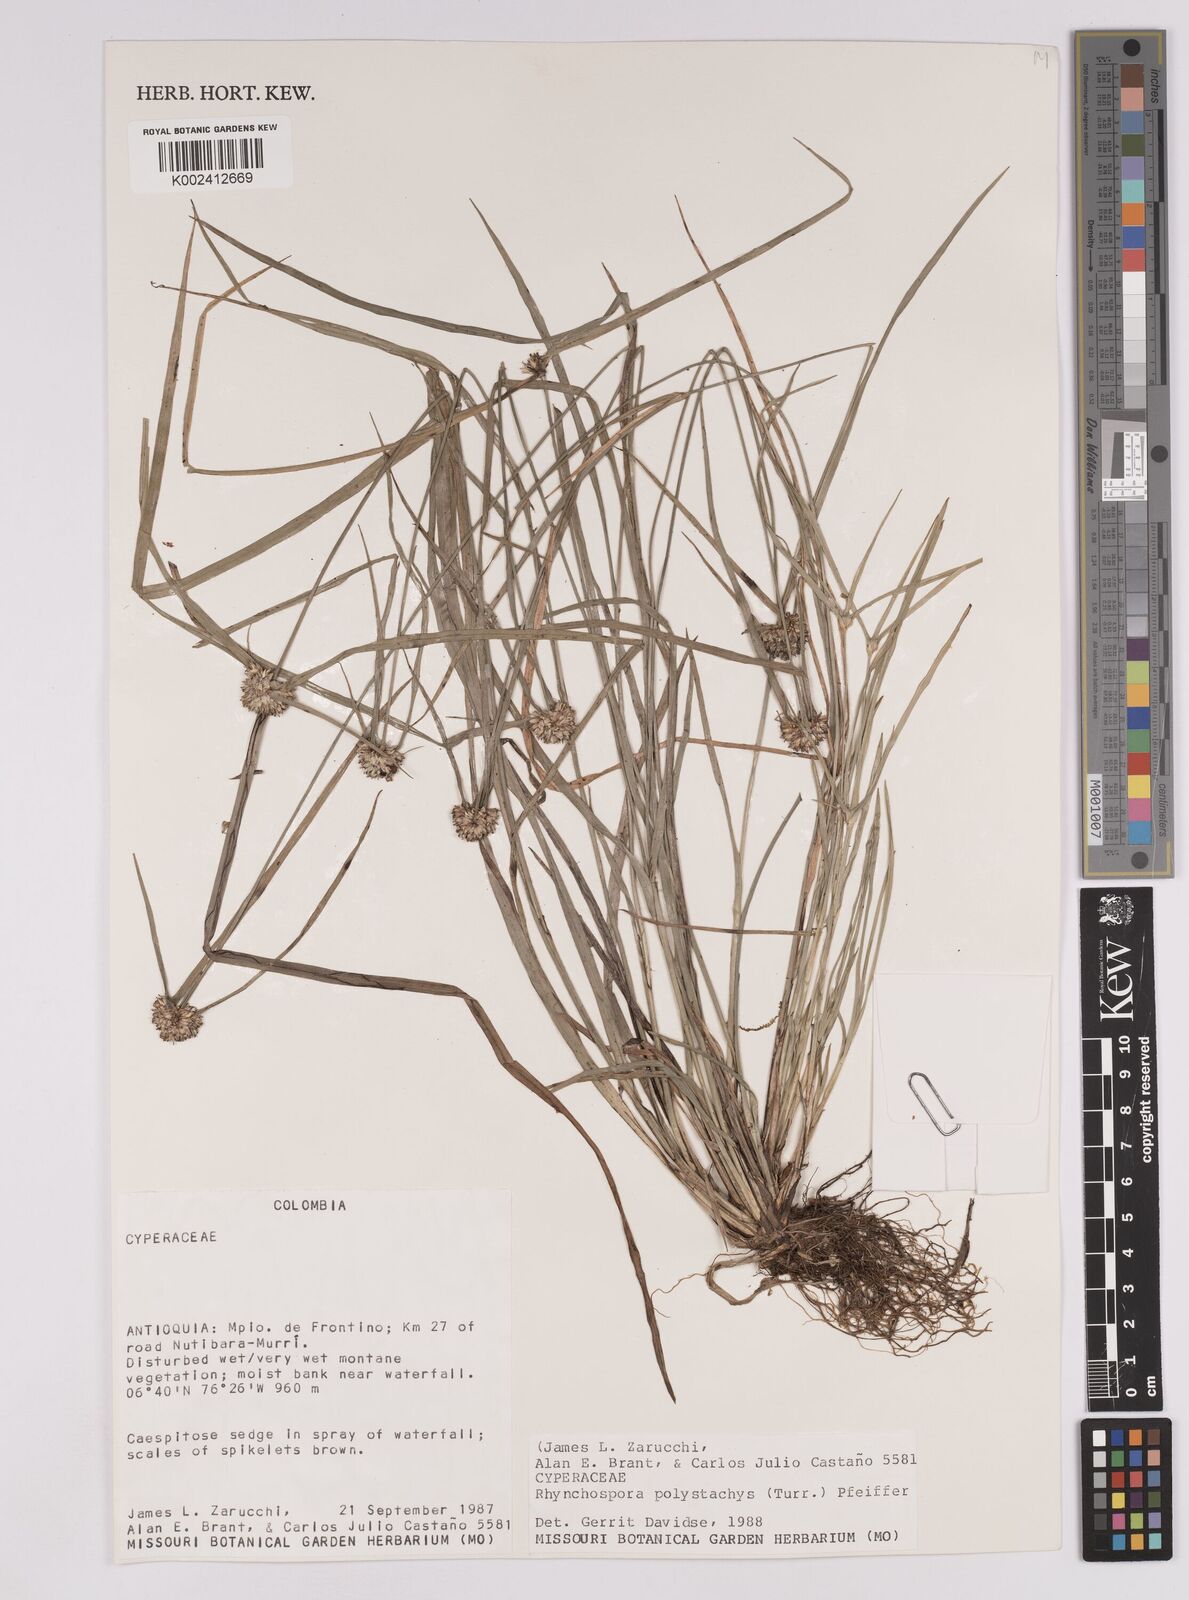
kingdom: Plantae
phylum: Tracheophyta
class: Liliopsida
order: Poales
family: Cyperaceae
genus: Rhynchospora
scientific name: Rhynchospora polystachys
